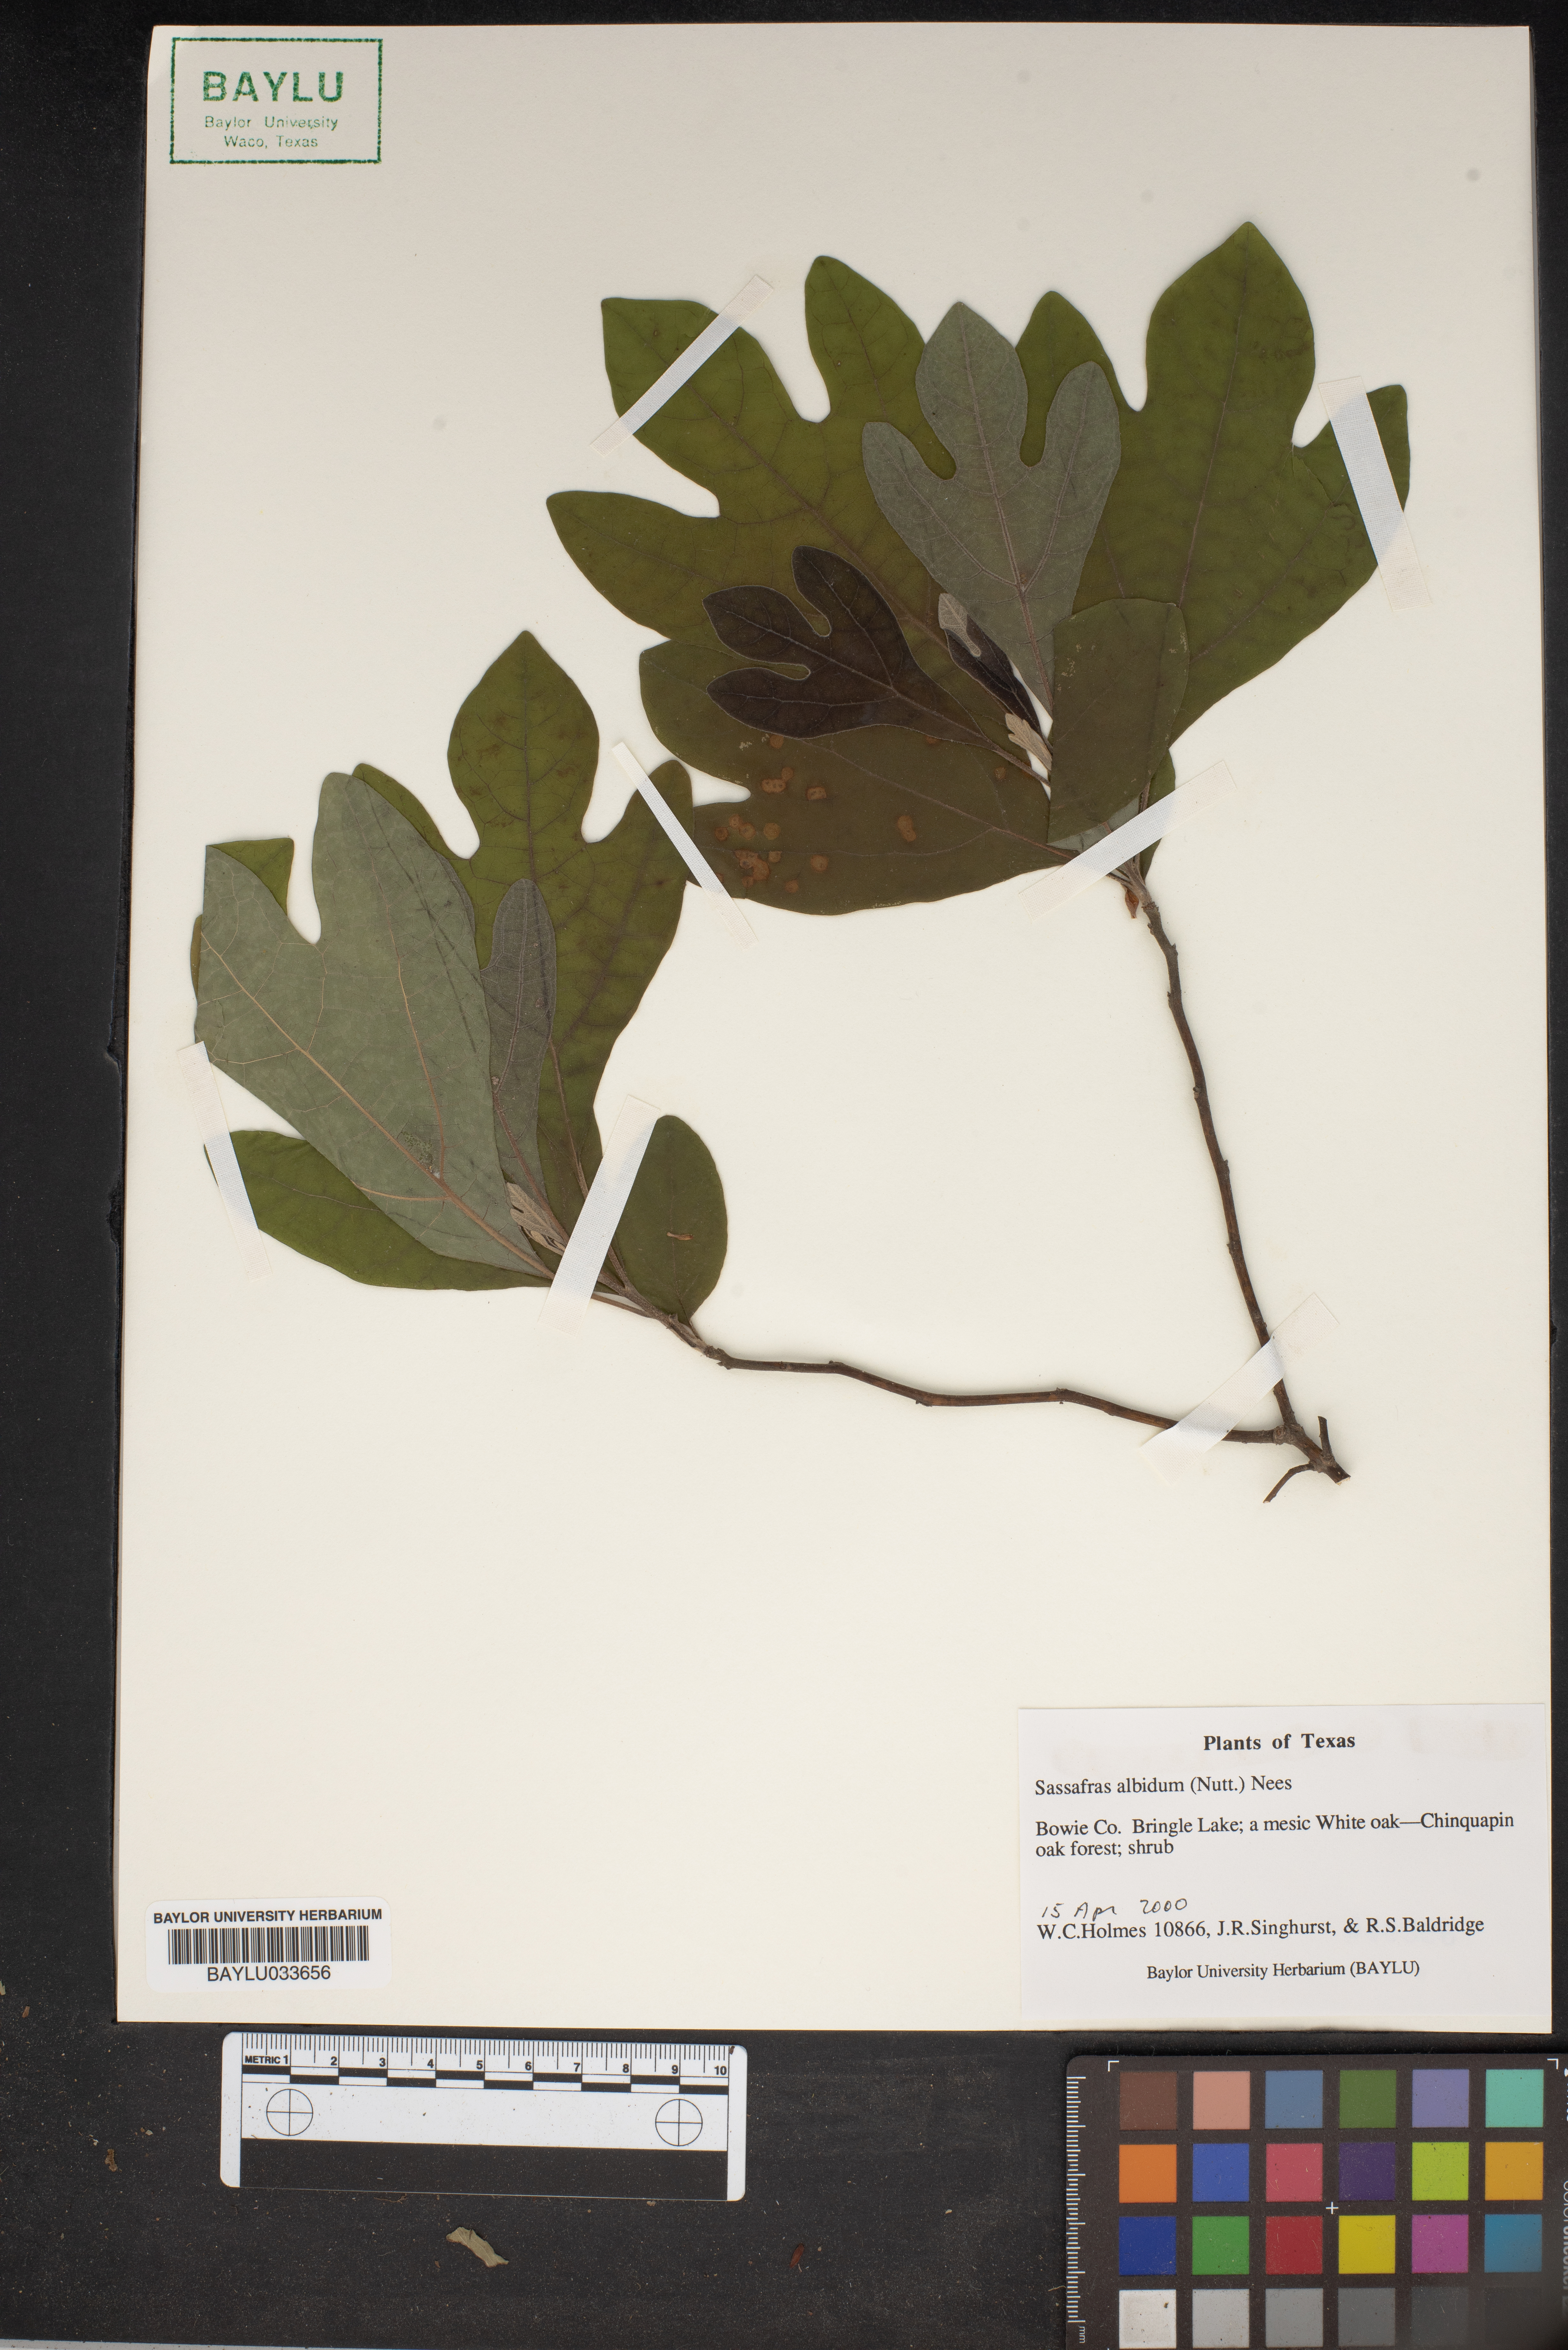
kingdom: Plantae
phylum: Tracheophyta
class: Magnoliopsida
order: Laurales
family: Lauraceae
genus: Sassafras
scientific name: Sassafras albidum
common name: Sassafras
